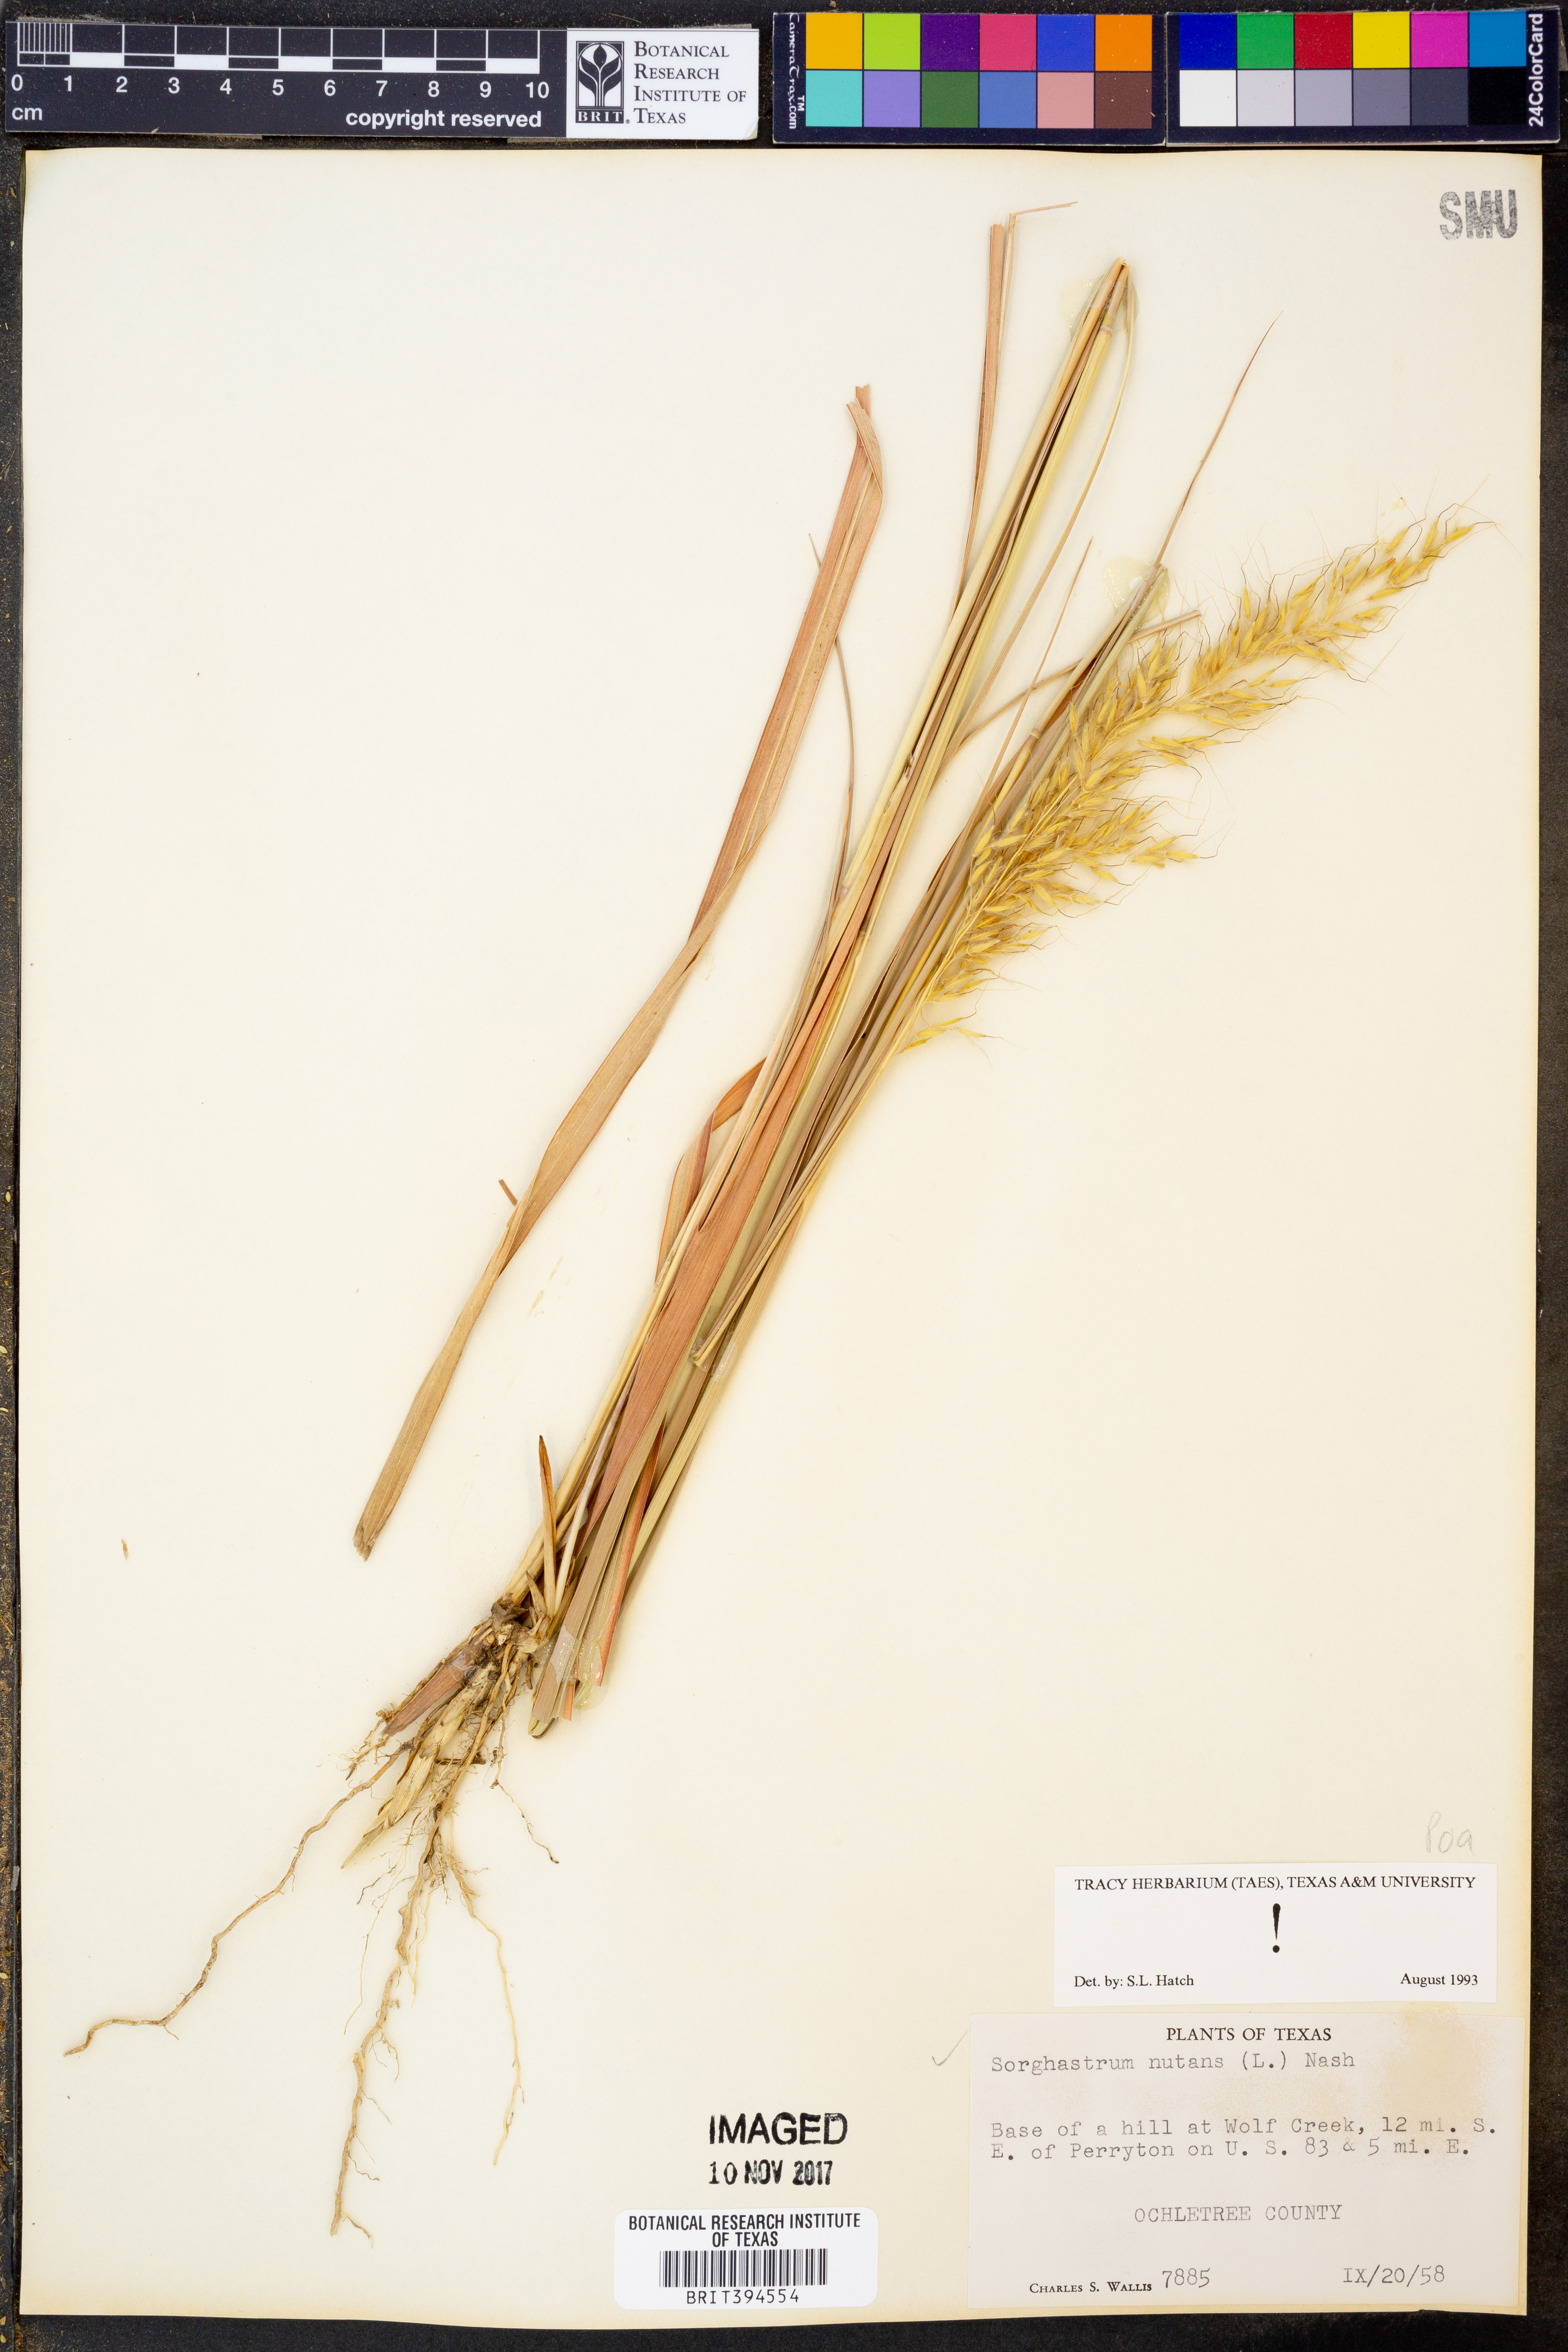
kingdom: Plantae
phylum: Tracheophyta
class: Liliopsida
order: Poales
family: Poaceae
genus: Sorghastrum
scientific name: Sorghastrum nutans
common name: Indian grass
